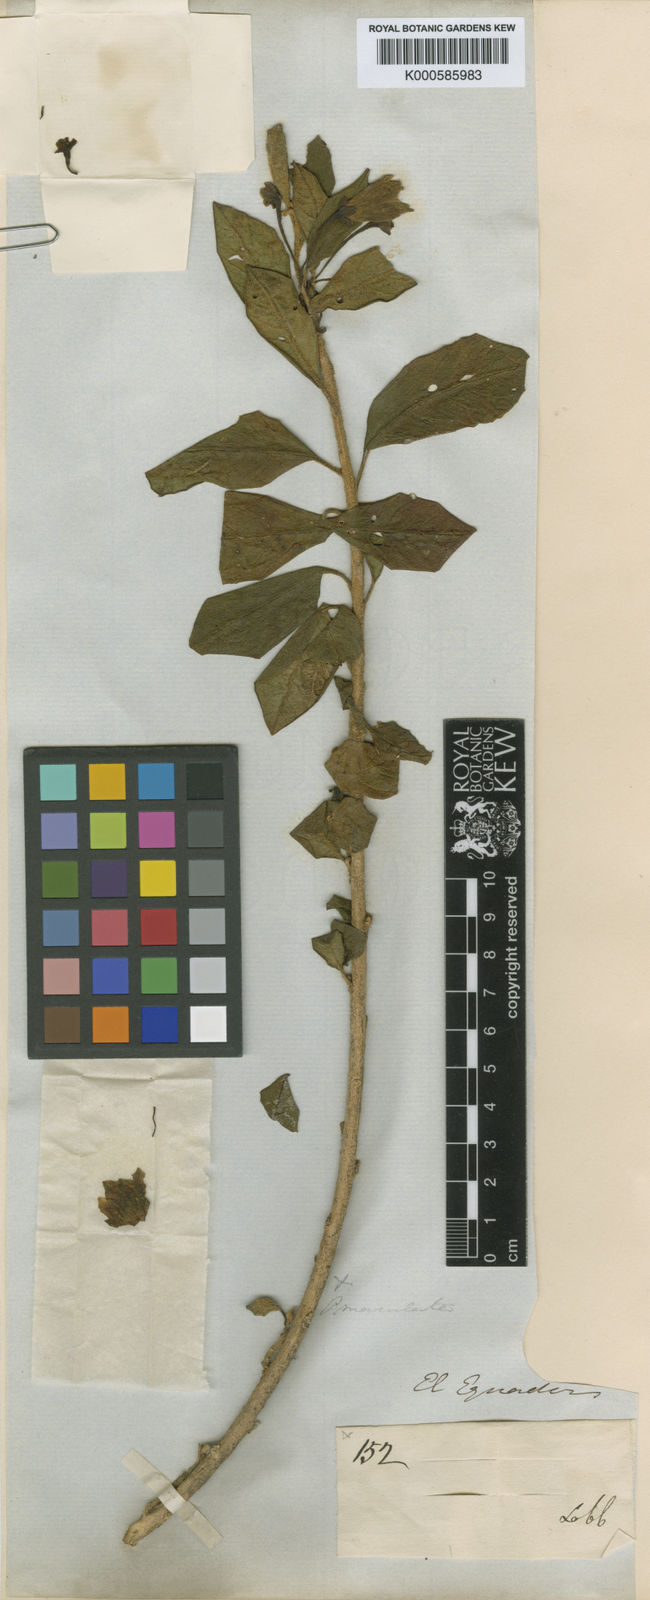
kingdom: Animalia
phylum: Arthropoda
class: Insecta
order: Hemiptera
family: Pentatomidae
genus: Poecilochroma
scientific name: Poecilochroma
